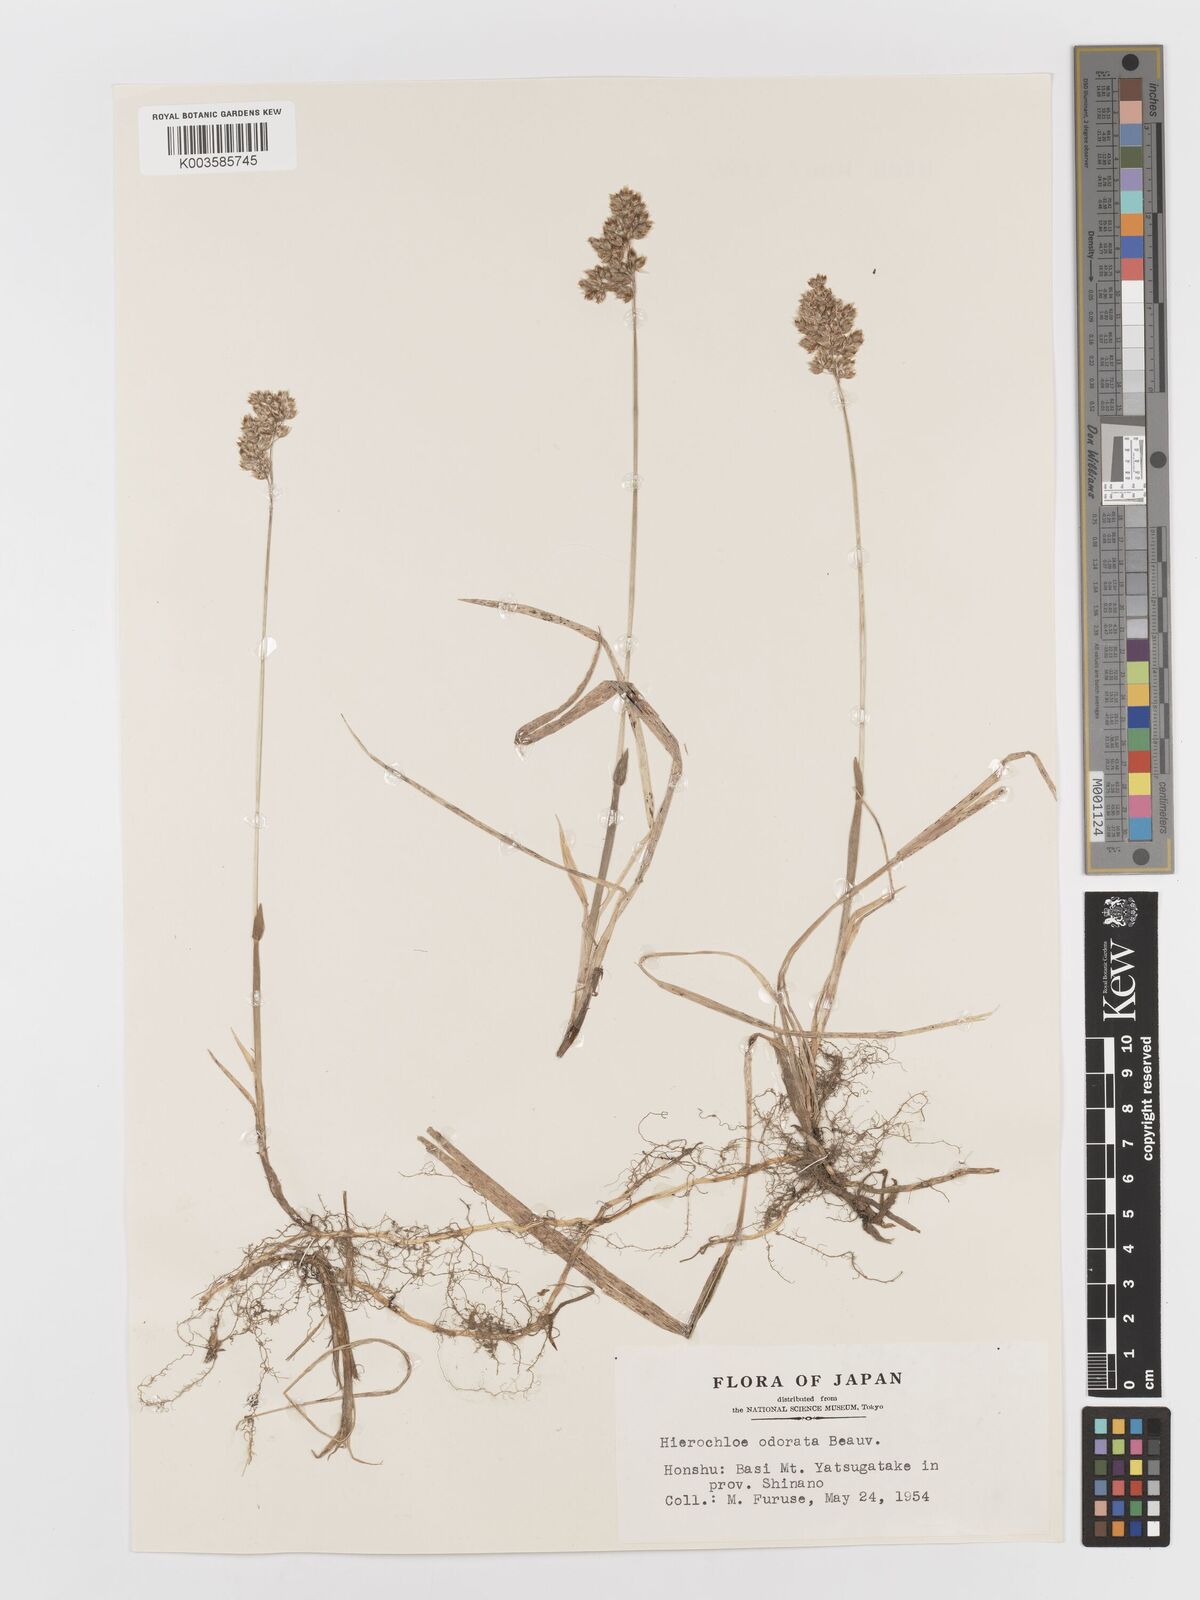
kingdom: Plantae
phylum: Tracheophyta
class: Liliopsida
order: Poales
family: Poaceae
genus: Anthoxanthum
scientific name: Anthoxanthum nitens
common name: Holy grass
